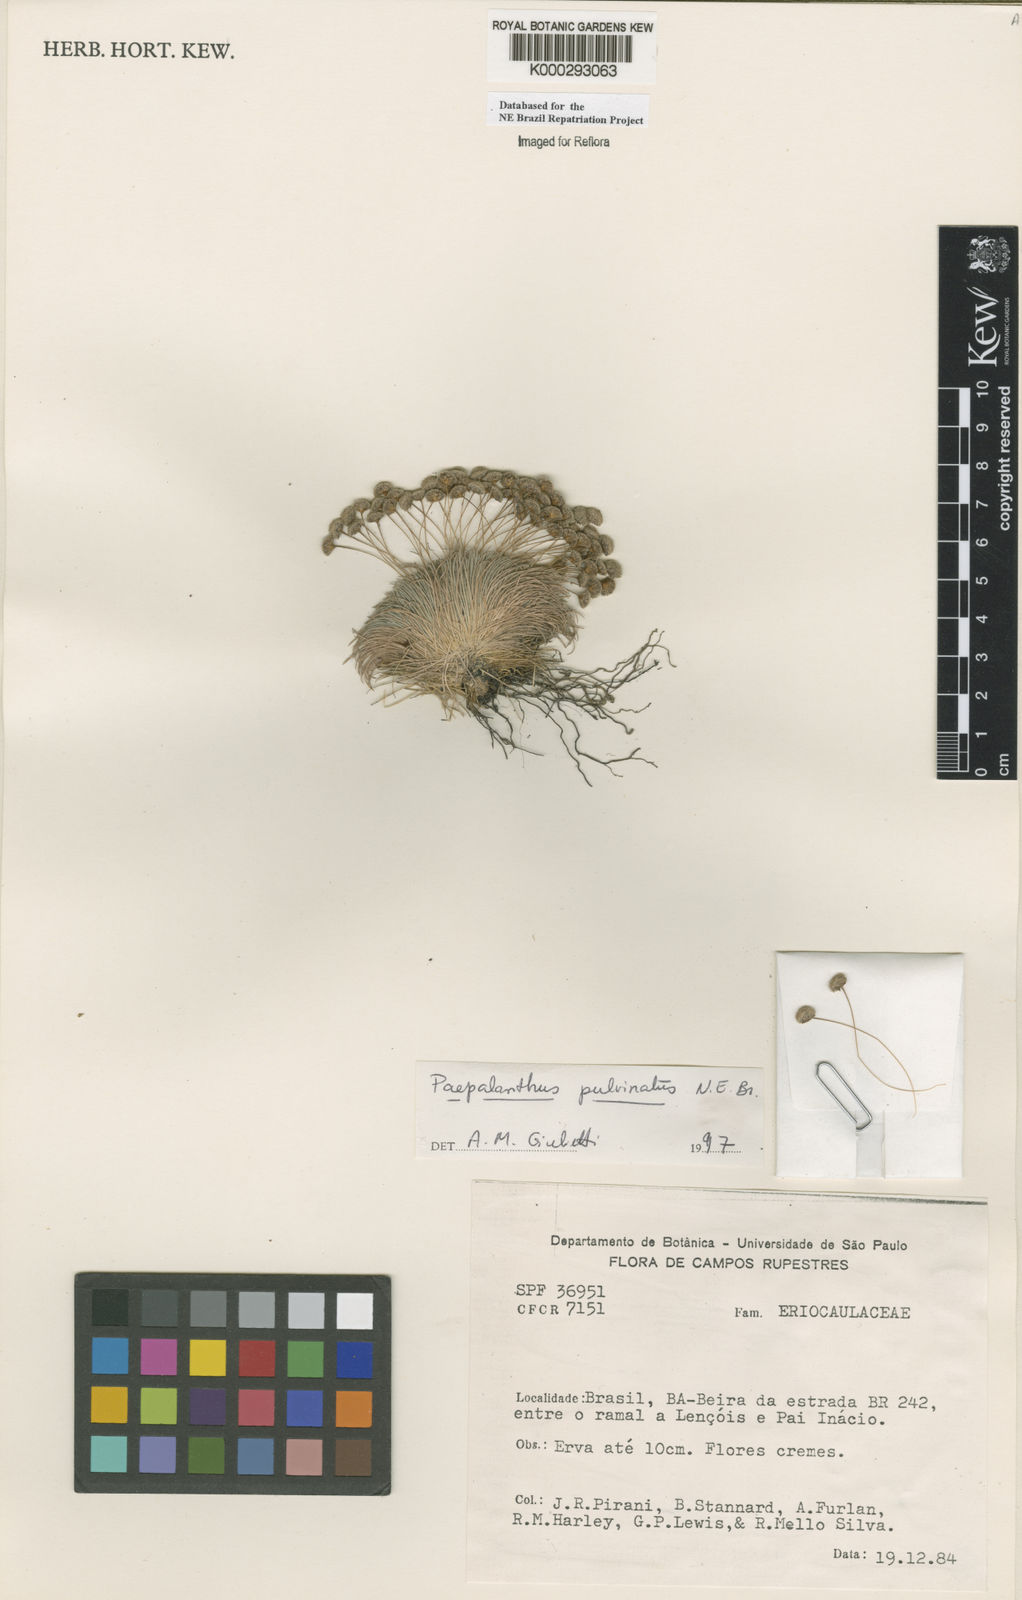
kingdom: Plantae
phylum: Tracheophyta
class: Liliopsida
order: Poales
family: Eriocaulaceae
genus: Paepalanthus
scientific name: Paepalanthus pulvinatus
